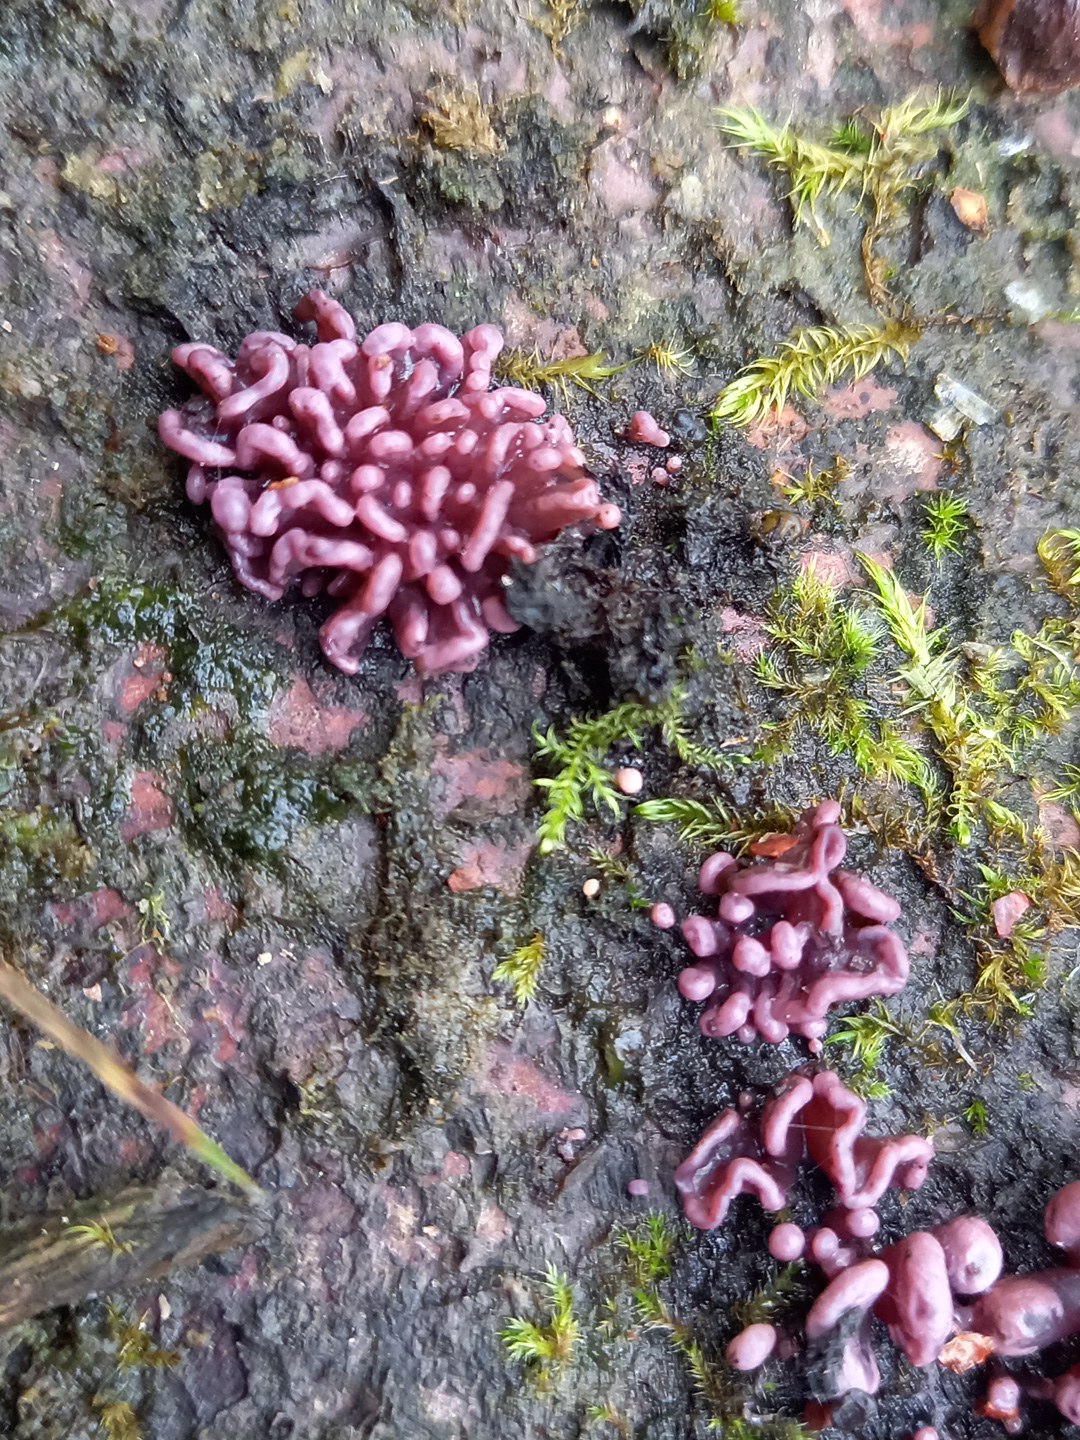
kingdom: Fungi
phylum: Ascomycota
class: Leotiomycetes
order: Helotiales
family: Gelatinodiscaceae
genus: Ascocoryne
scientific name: Ascocoryne sarcoides
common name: rødlilla sejskive
